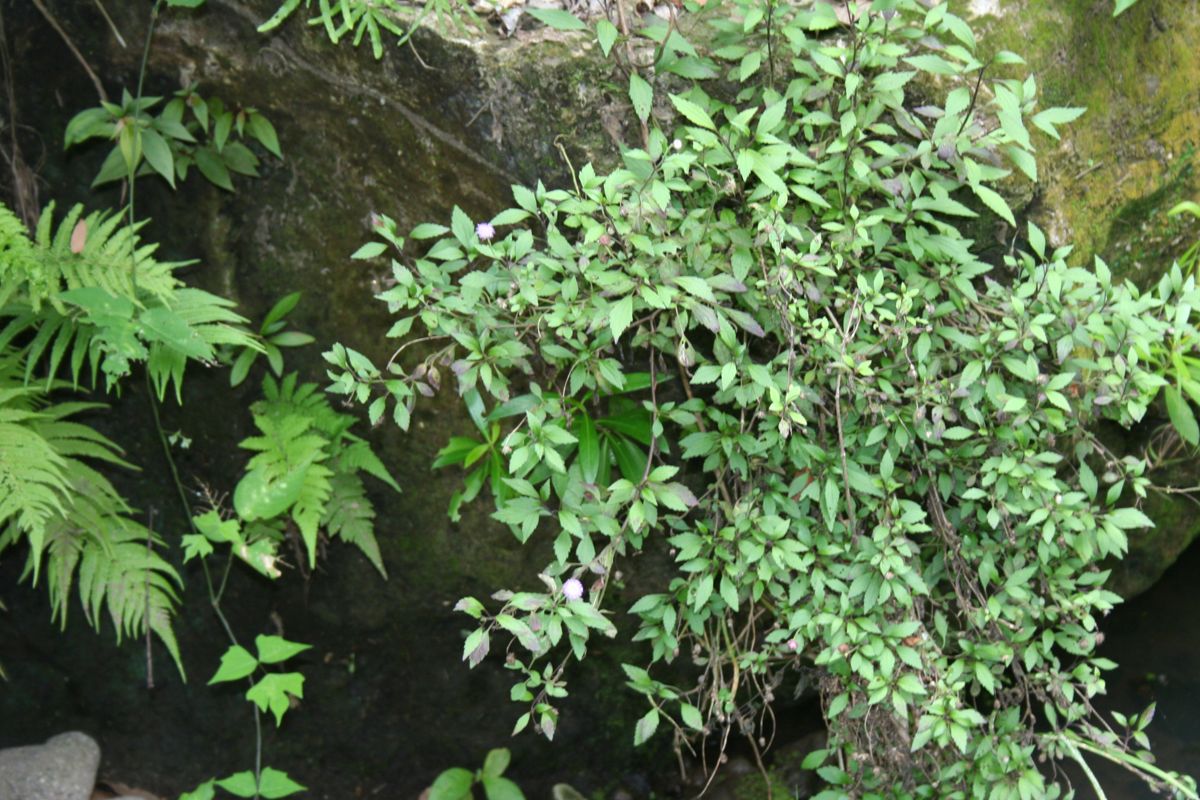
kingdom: Plantae
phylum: Tracheophyta
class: Magnoliopsida
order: Asterales
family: Asteraceae
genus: Fleischmannia
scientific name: Fleischmannia imitans
